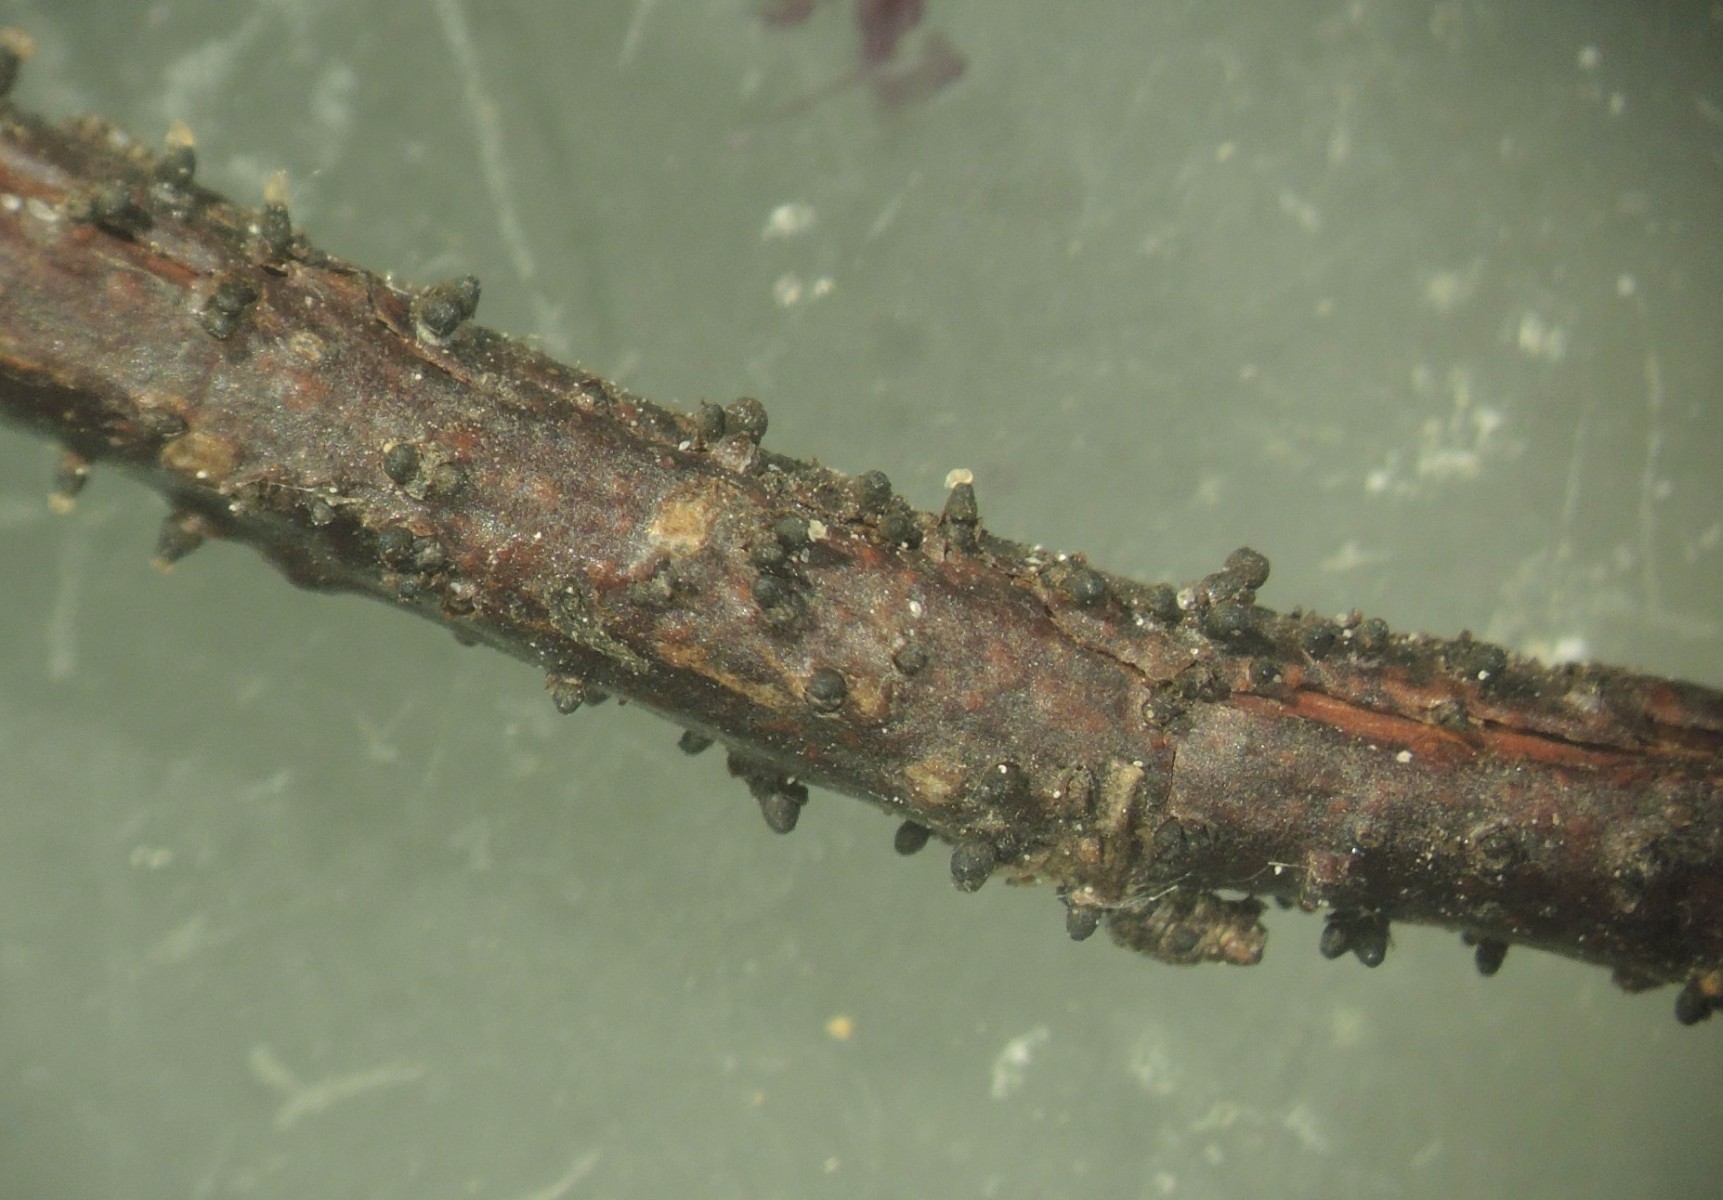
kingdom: Fungi
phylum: Ascomycota
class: Leotiomycetes
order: Helotiales
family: Godroniaceae
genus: Godronia
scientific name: Godronia uberiformis
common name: solbær-urneskive
